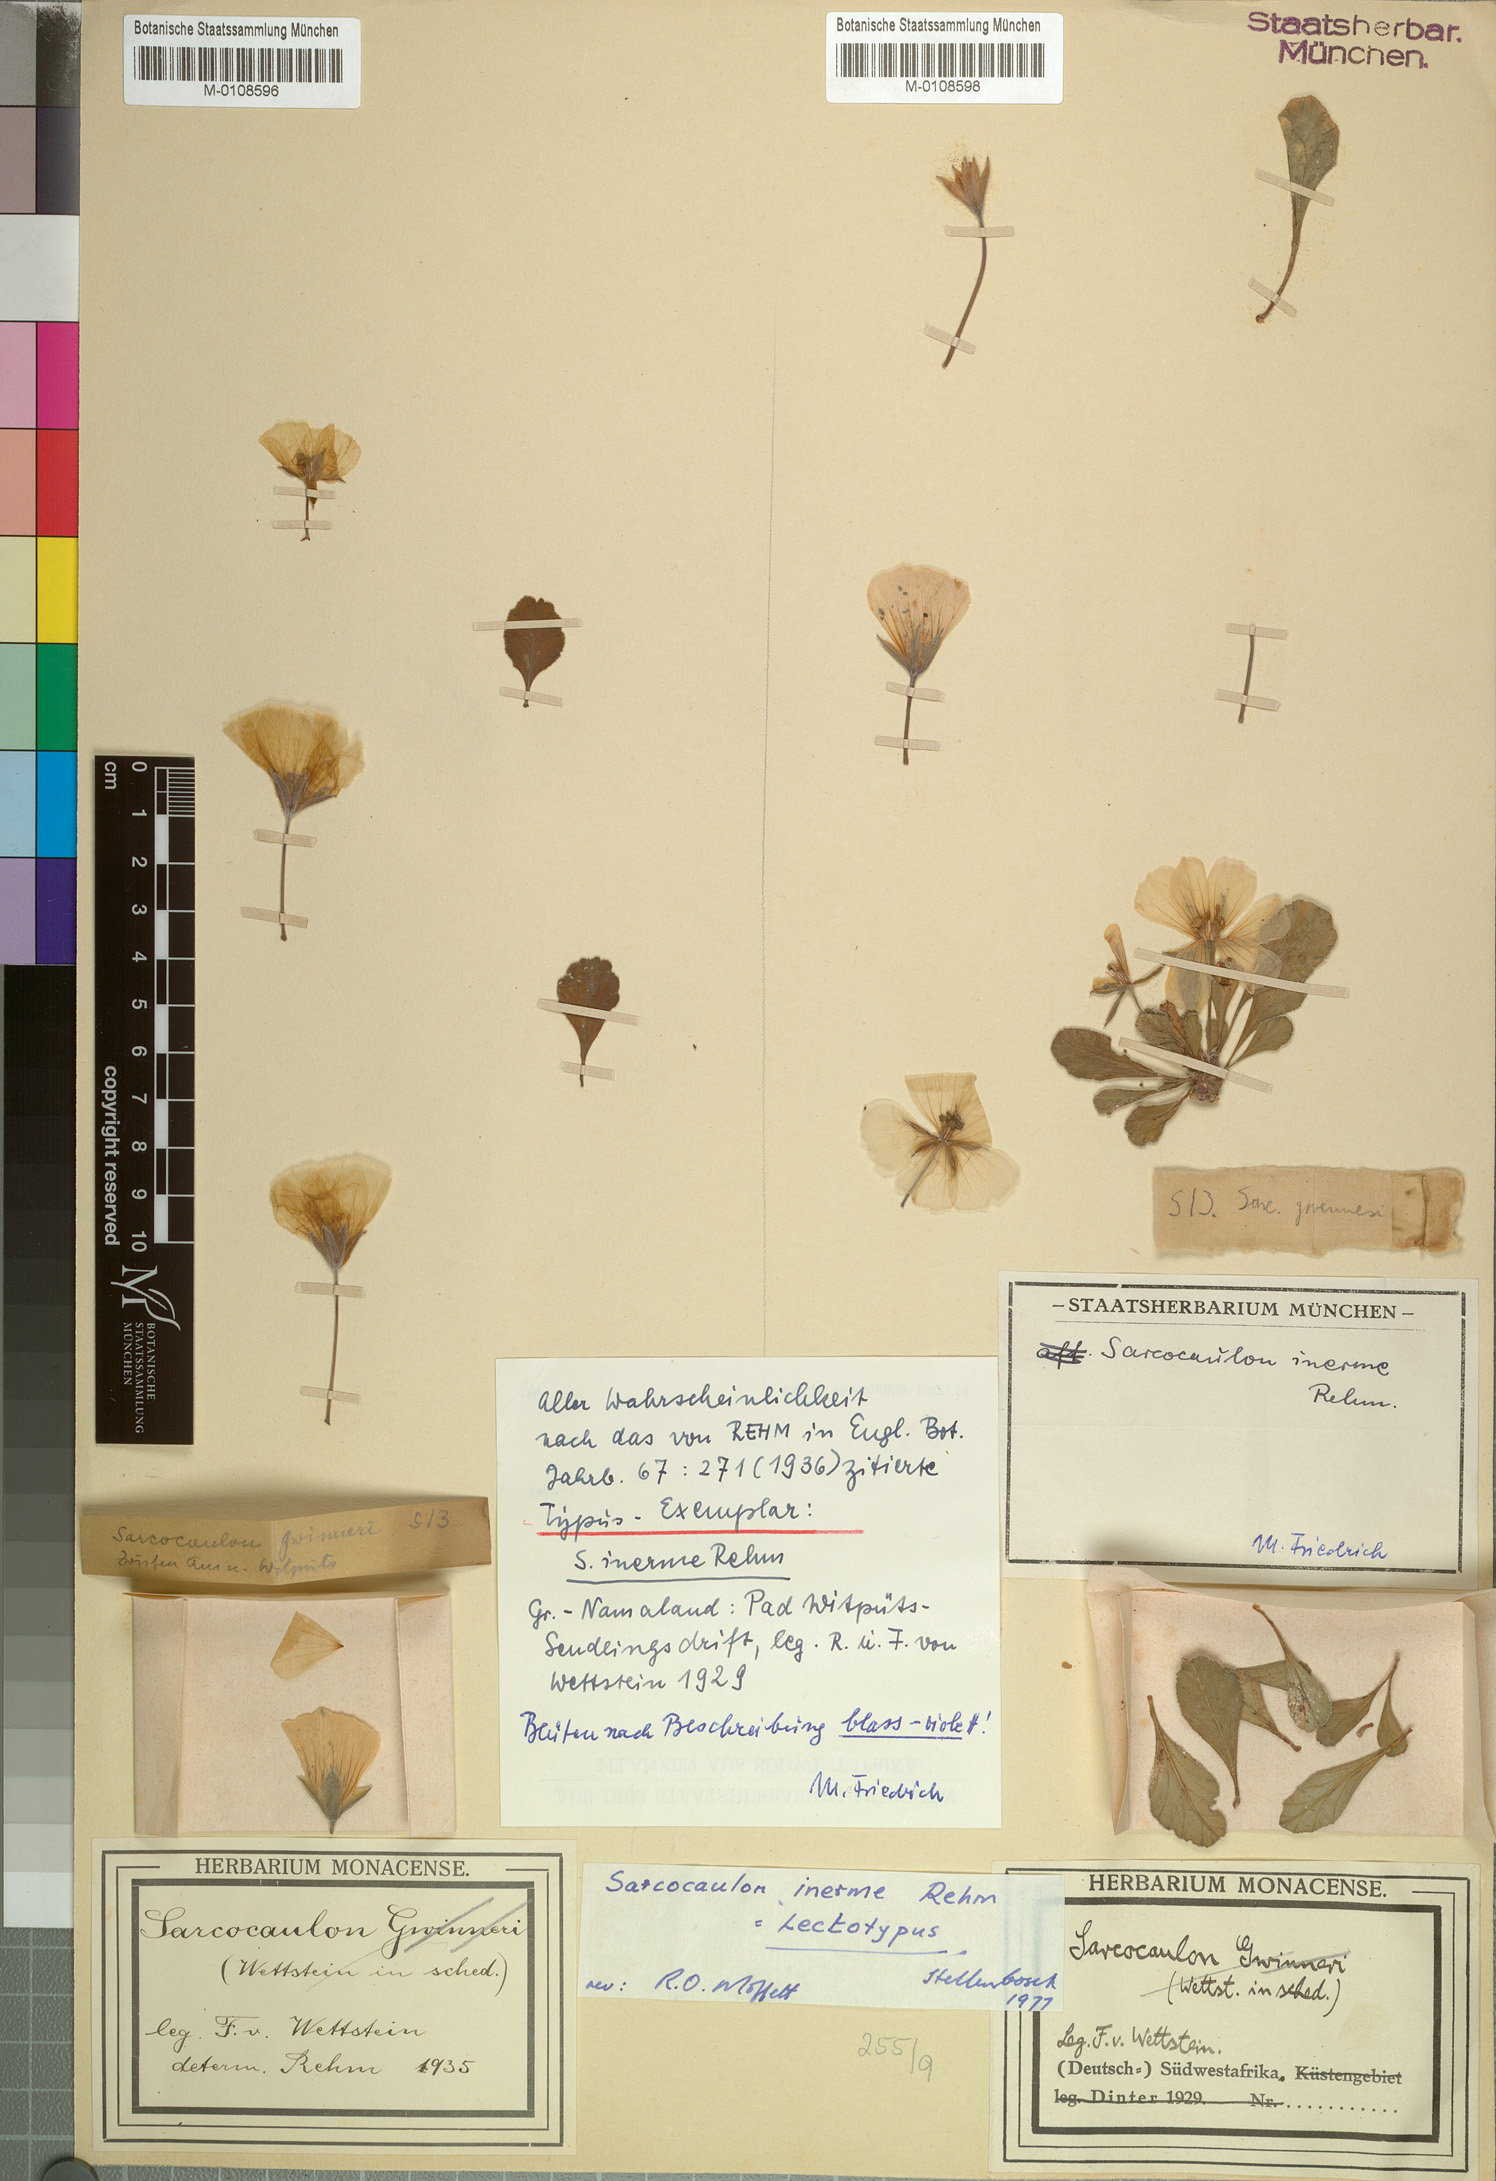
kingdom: Plantae
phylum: Tracheophyta
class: Magnoliopsida
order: Geraniales
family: Geraniaceae
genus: Monsonia
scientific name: Monsonia inermis
